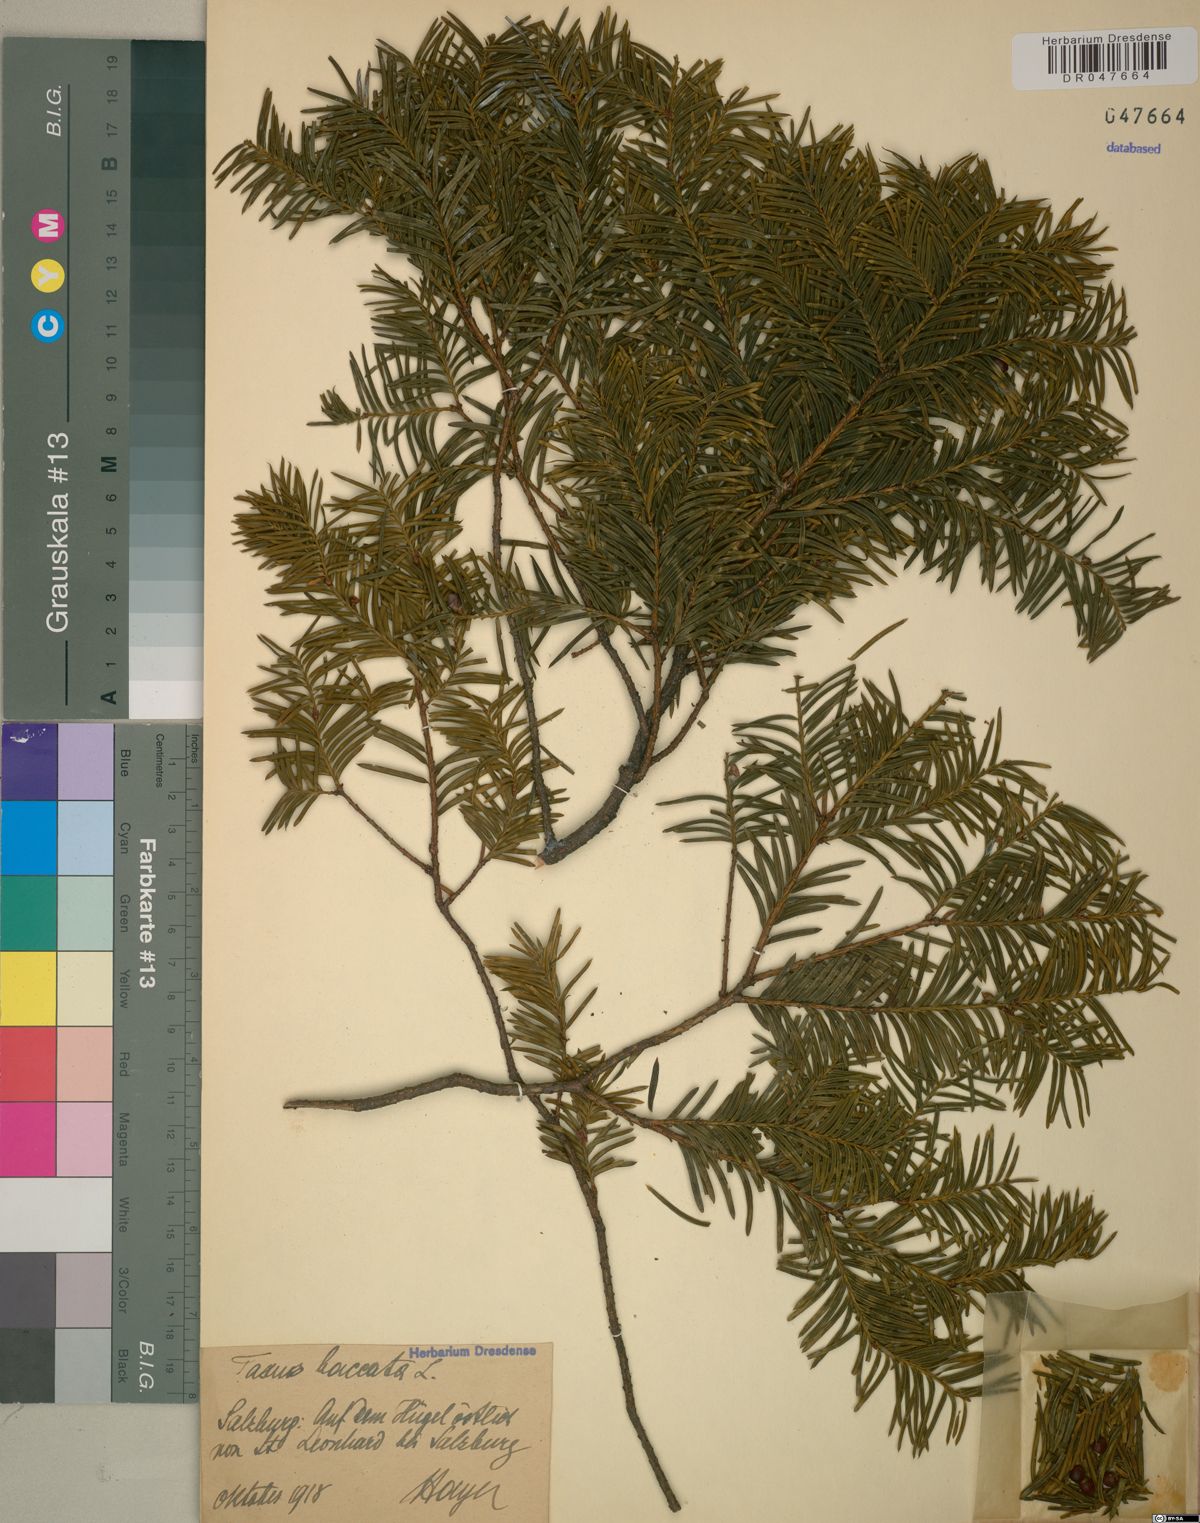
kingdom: Plantae
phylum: Tracheophyta
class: Pinopsida
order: Pinales
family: Taxaceae
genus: Taxus
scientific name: Taxus baccata
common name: Yew
